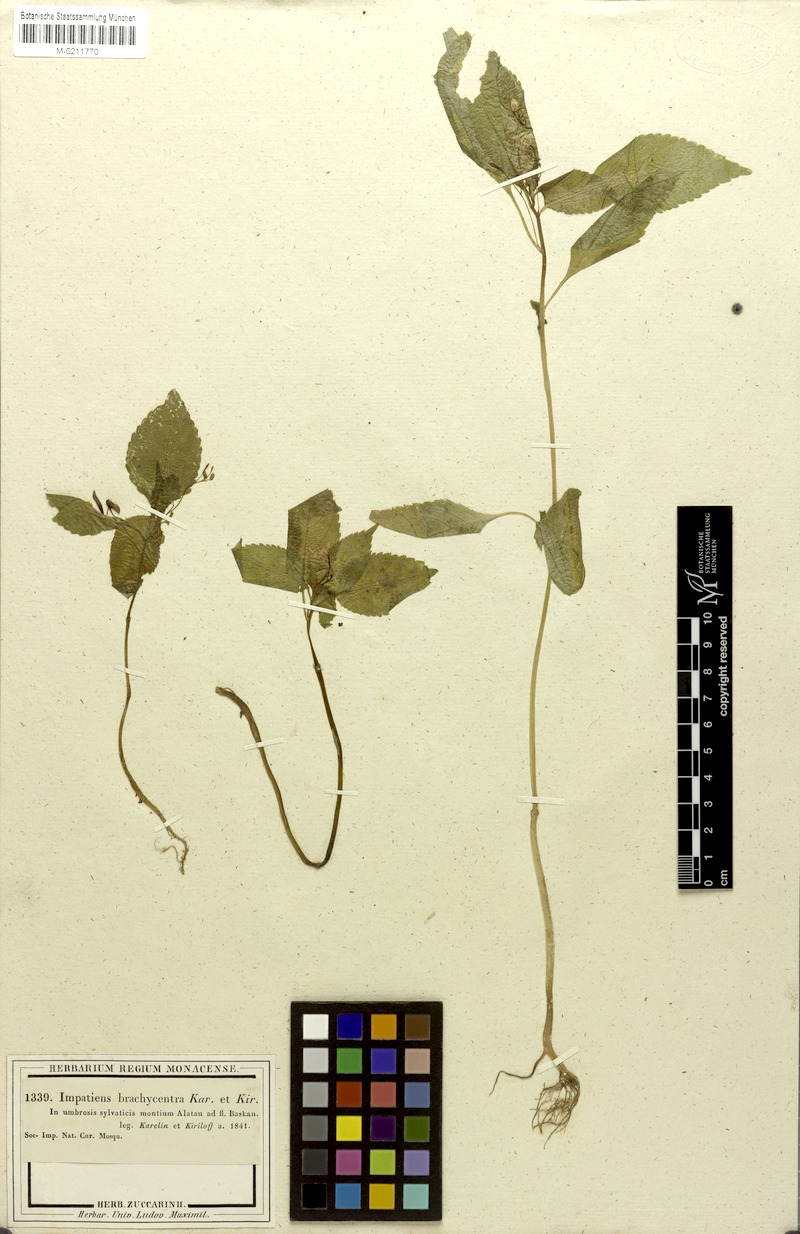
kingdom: Plantae
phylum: Tracheophyta
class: Magnoliopsida
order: Ericales
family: Balsaminaceae
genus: Impatiens
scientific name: Impatiens brachycentra
